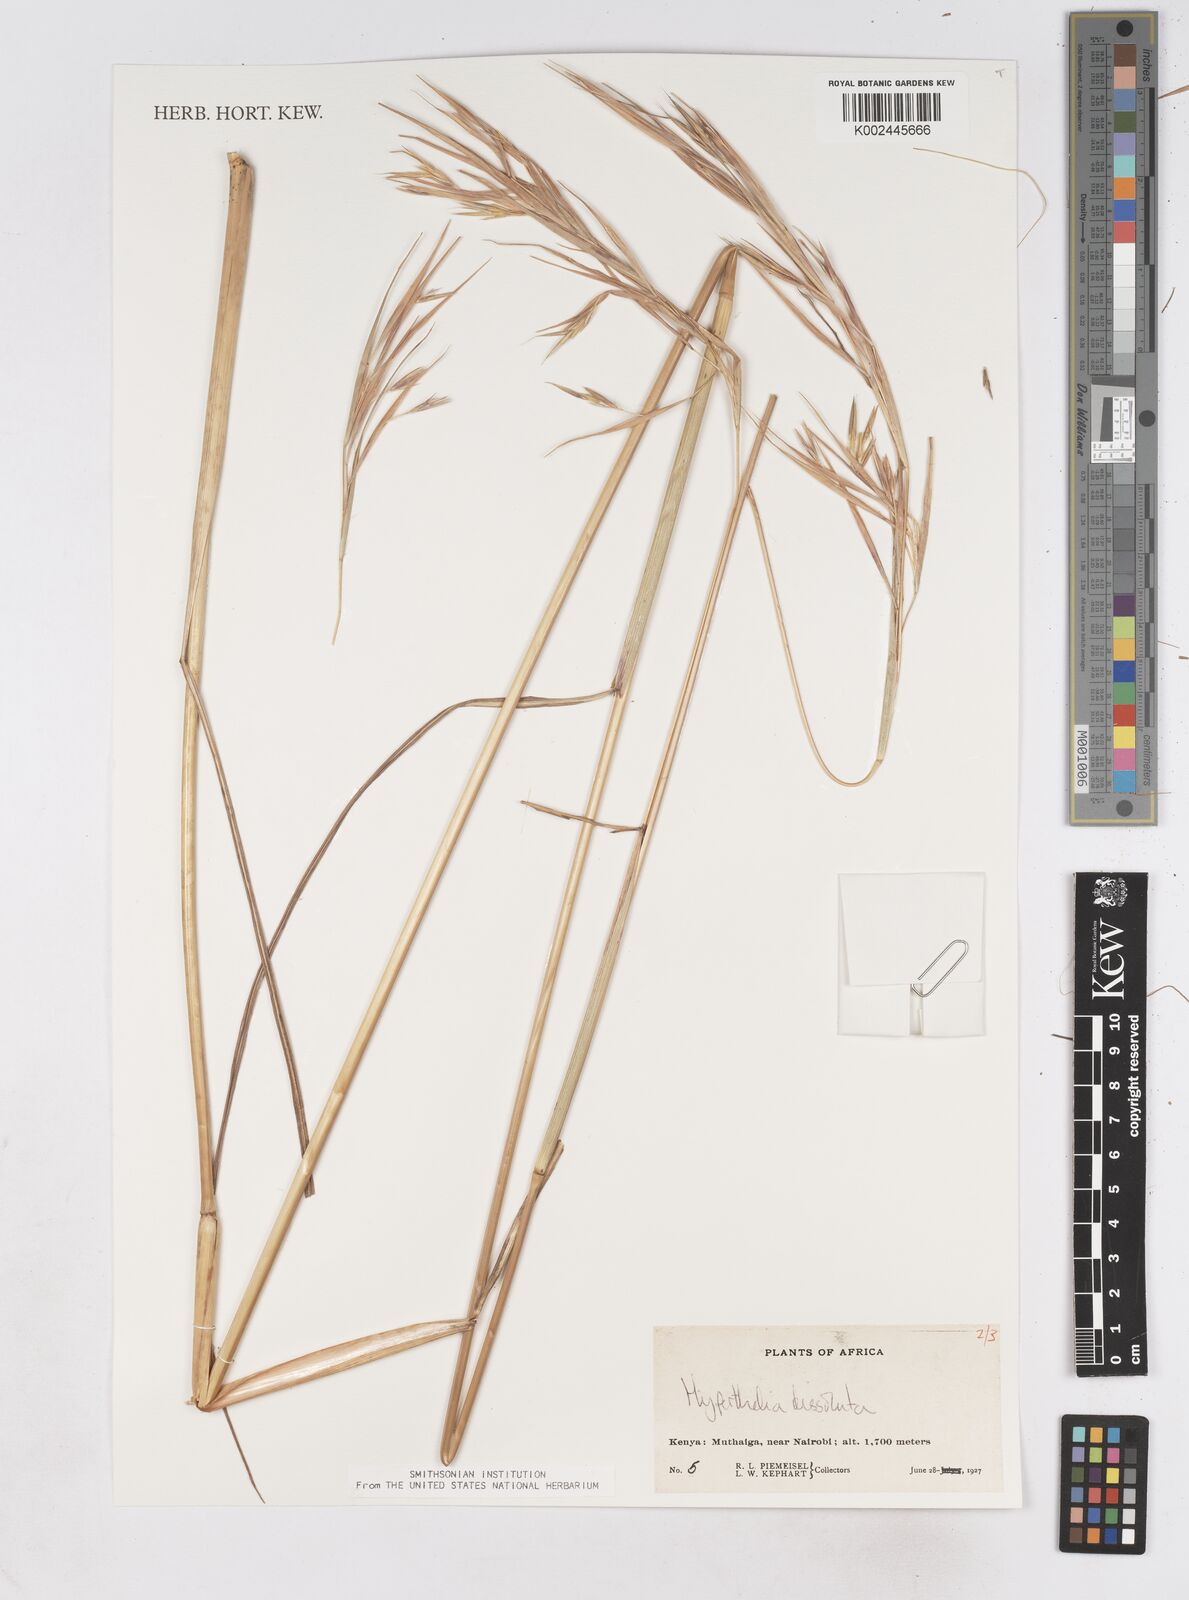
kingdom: Plantae
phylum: Tracheophyta
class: Liliopsida
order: Poales
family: Poaceae
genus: Hyperthelia
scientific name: Hyperthelia dissoluta
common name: Yellow thatching grass
